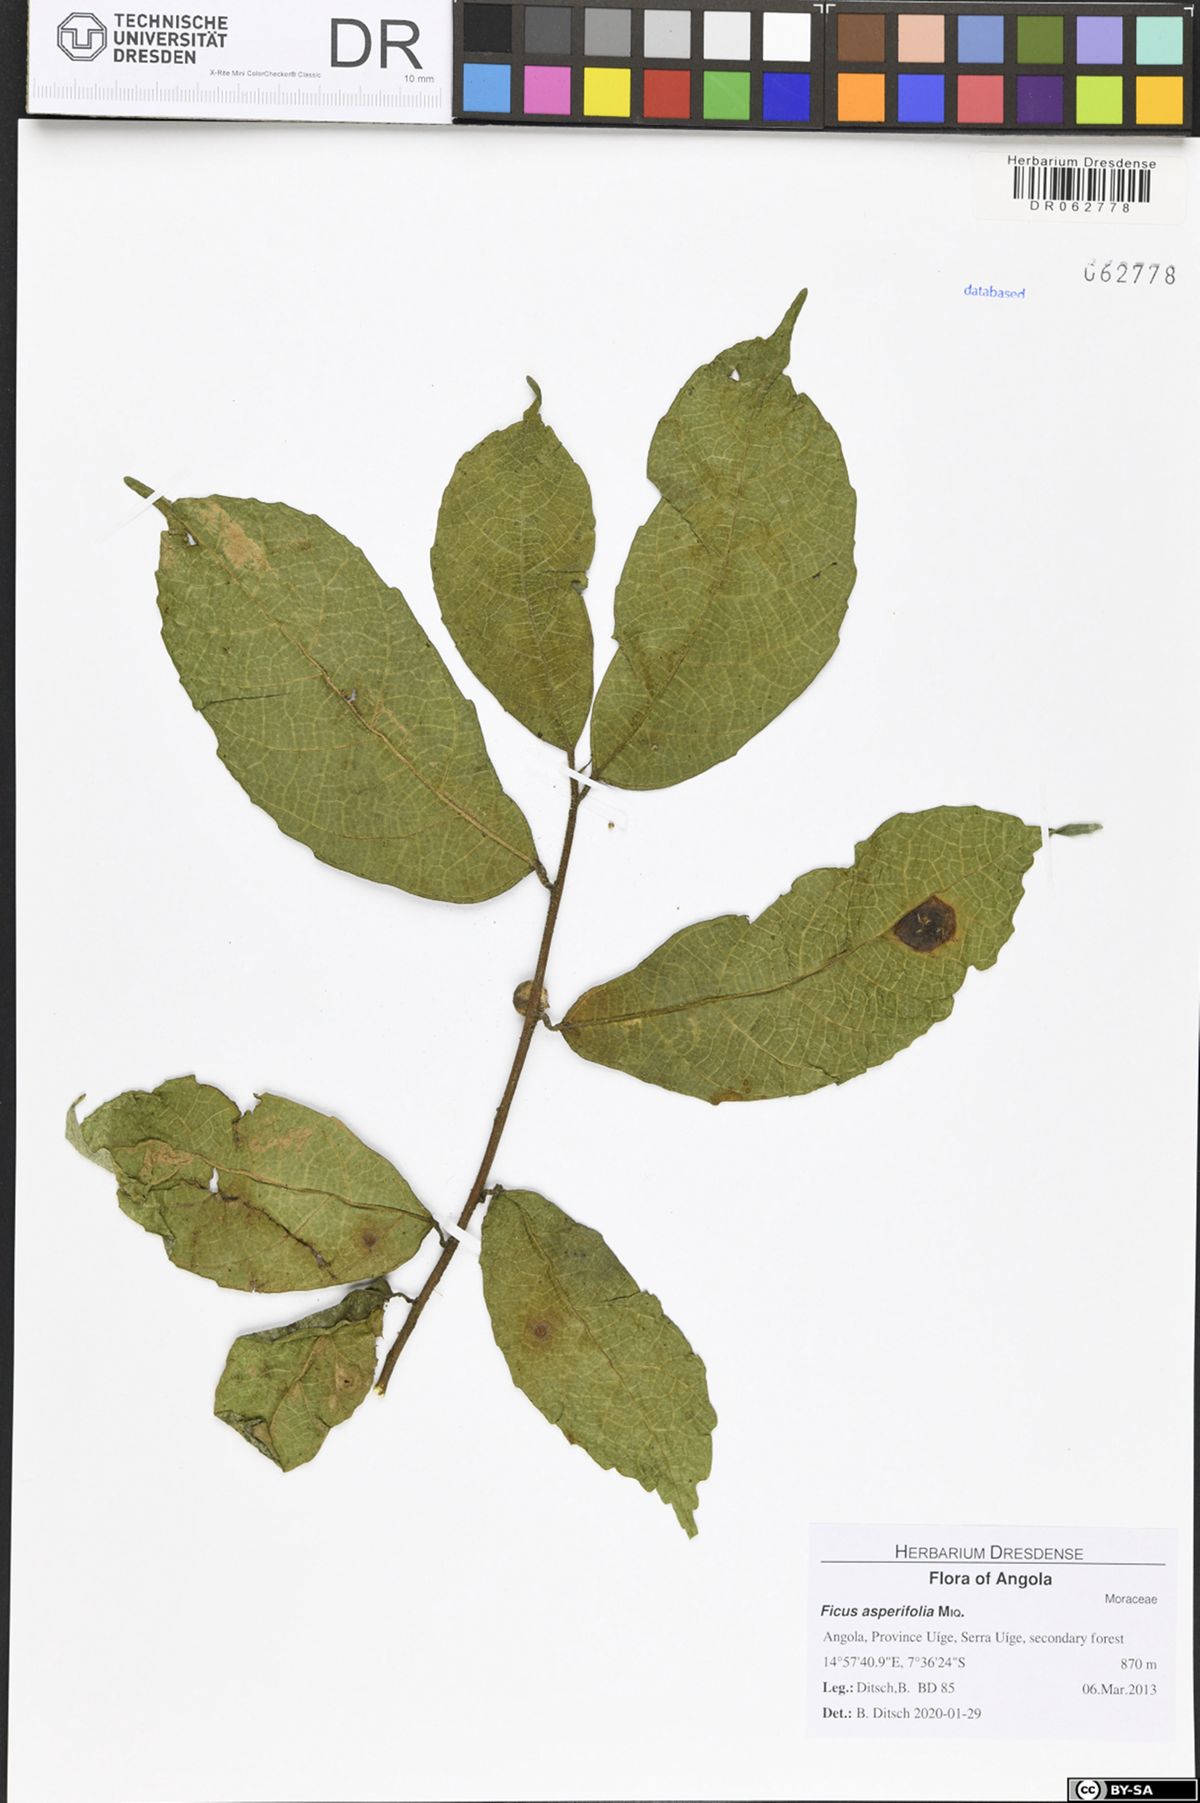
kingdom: Plantae
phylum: Tracheophyta
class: Magnoliopsida
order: Rosales
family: Moraceae
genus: Ficus
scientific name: Ficus asperifolia
